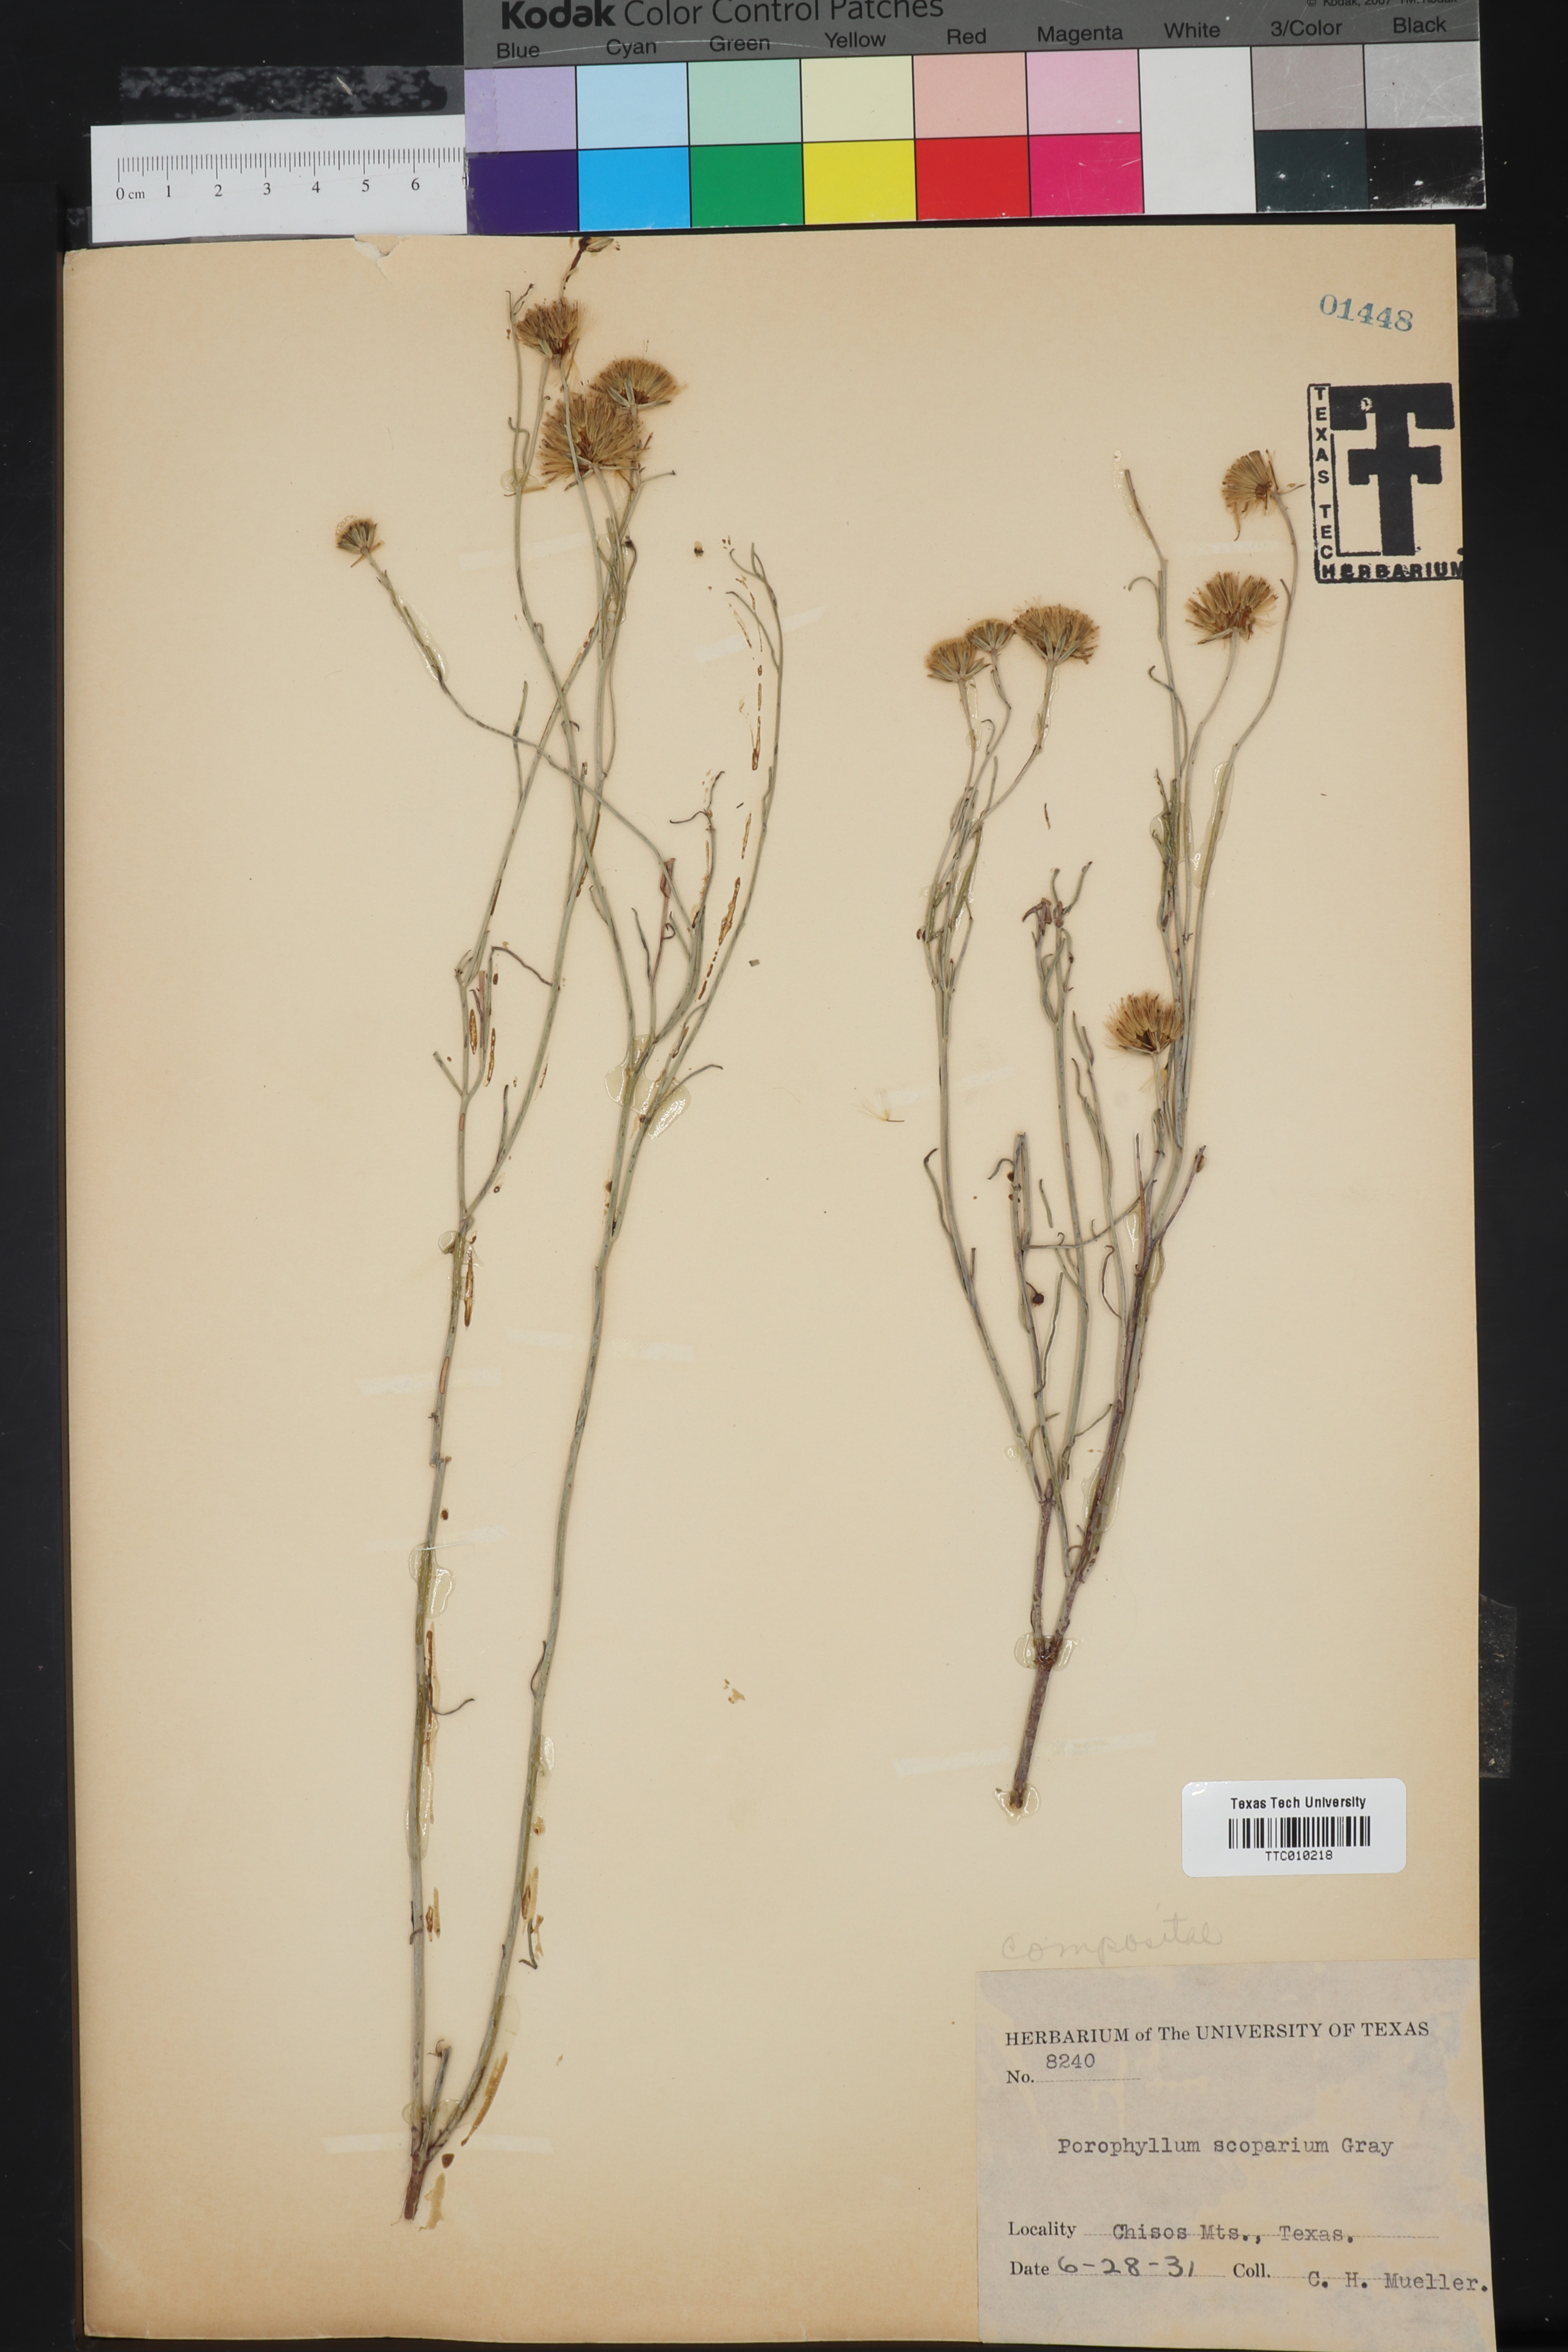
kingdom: Plantae
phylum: Tracheophyta
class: Magnoliopsida
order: Asterales
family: Asteraceae
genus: Porophyllum
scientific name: Porophyllum scoparium
